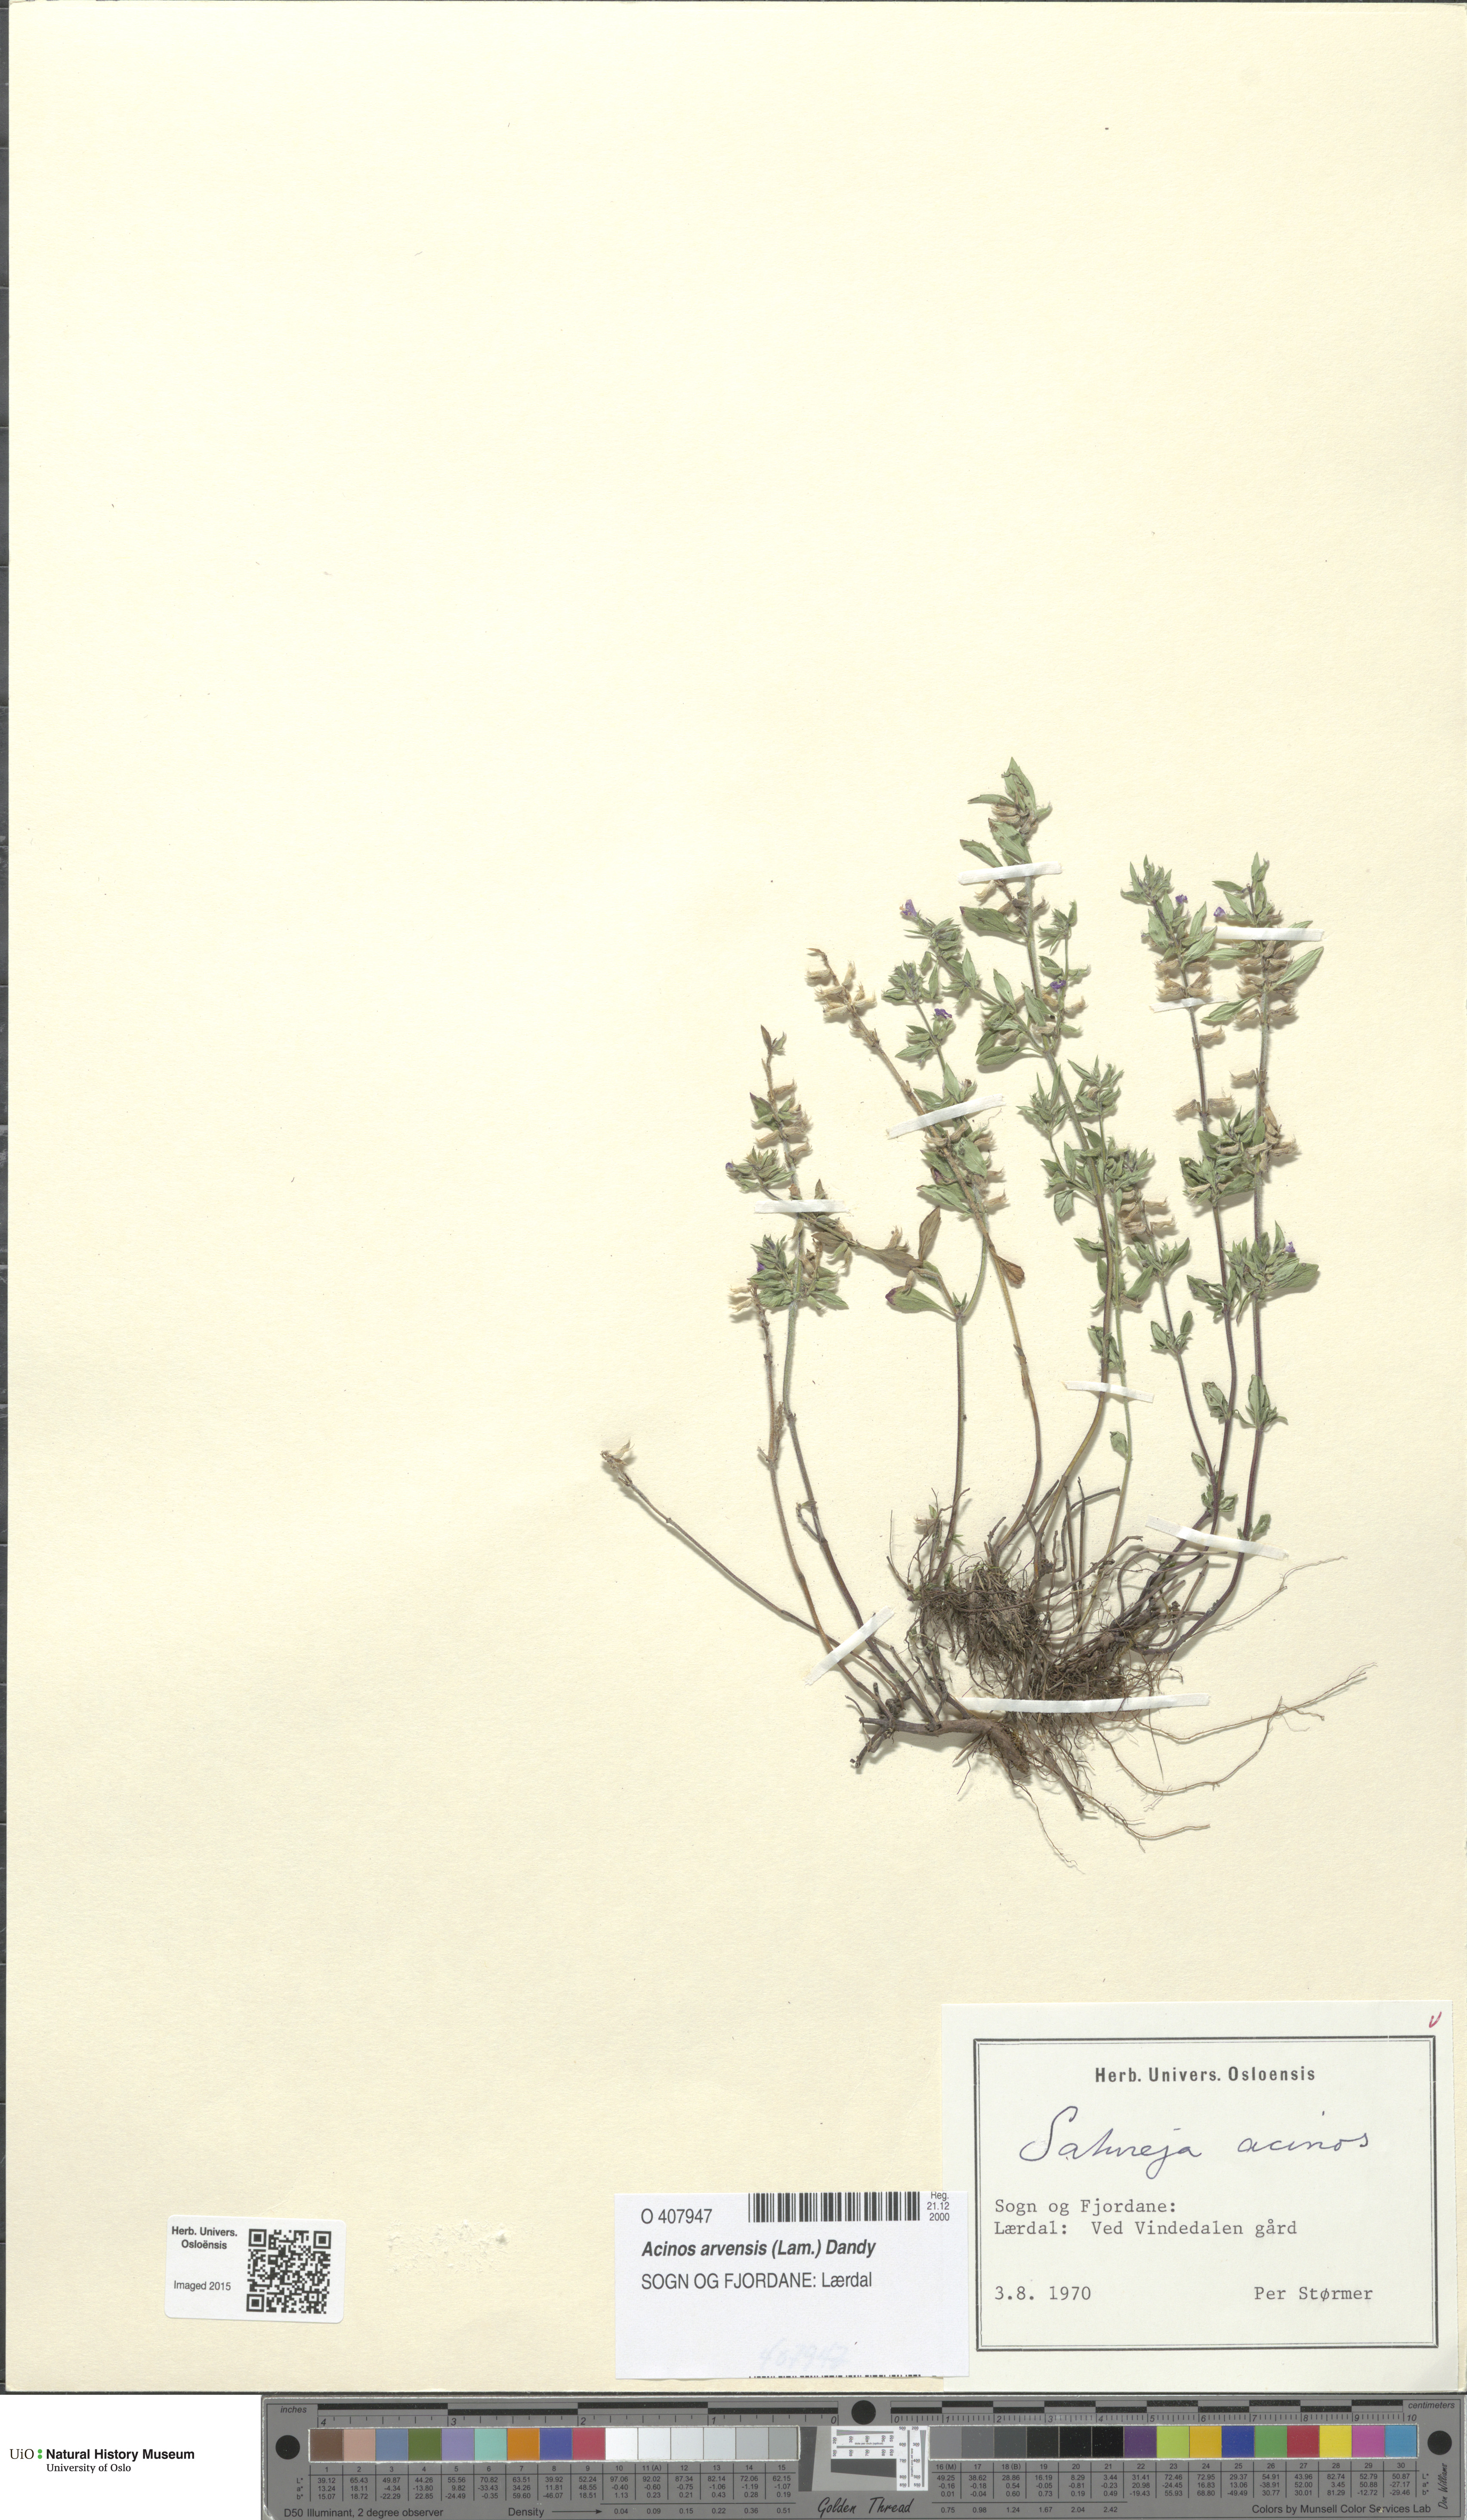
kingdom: Plantae
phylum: Tracheophyta
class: Magnoliopsida
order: Lamiales
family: Lamiaceae
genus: Clinopodium
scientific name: Clinopodium acinos
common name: Basil thyme
